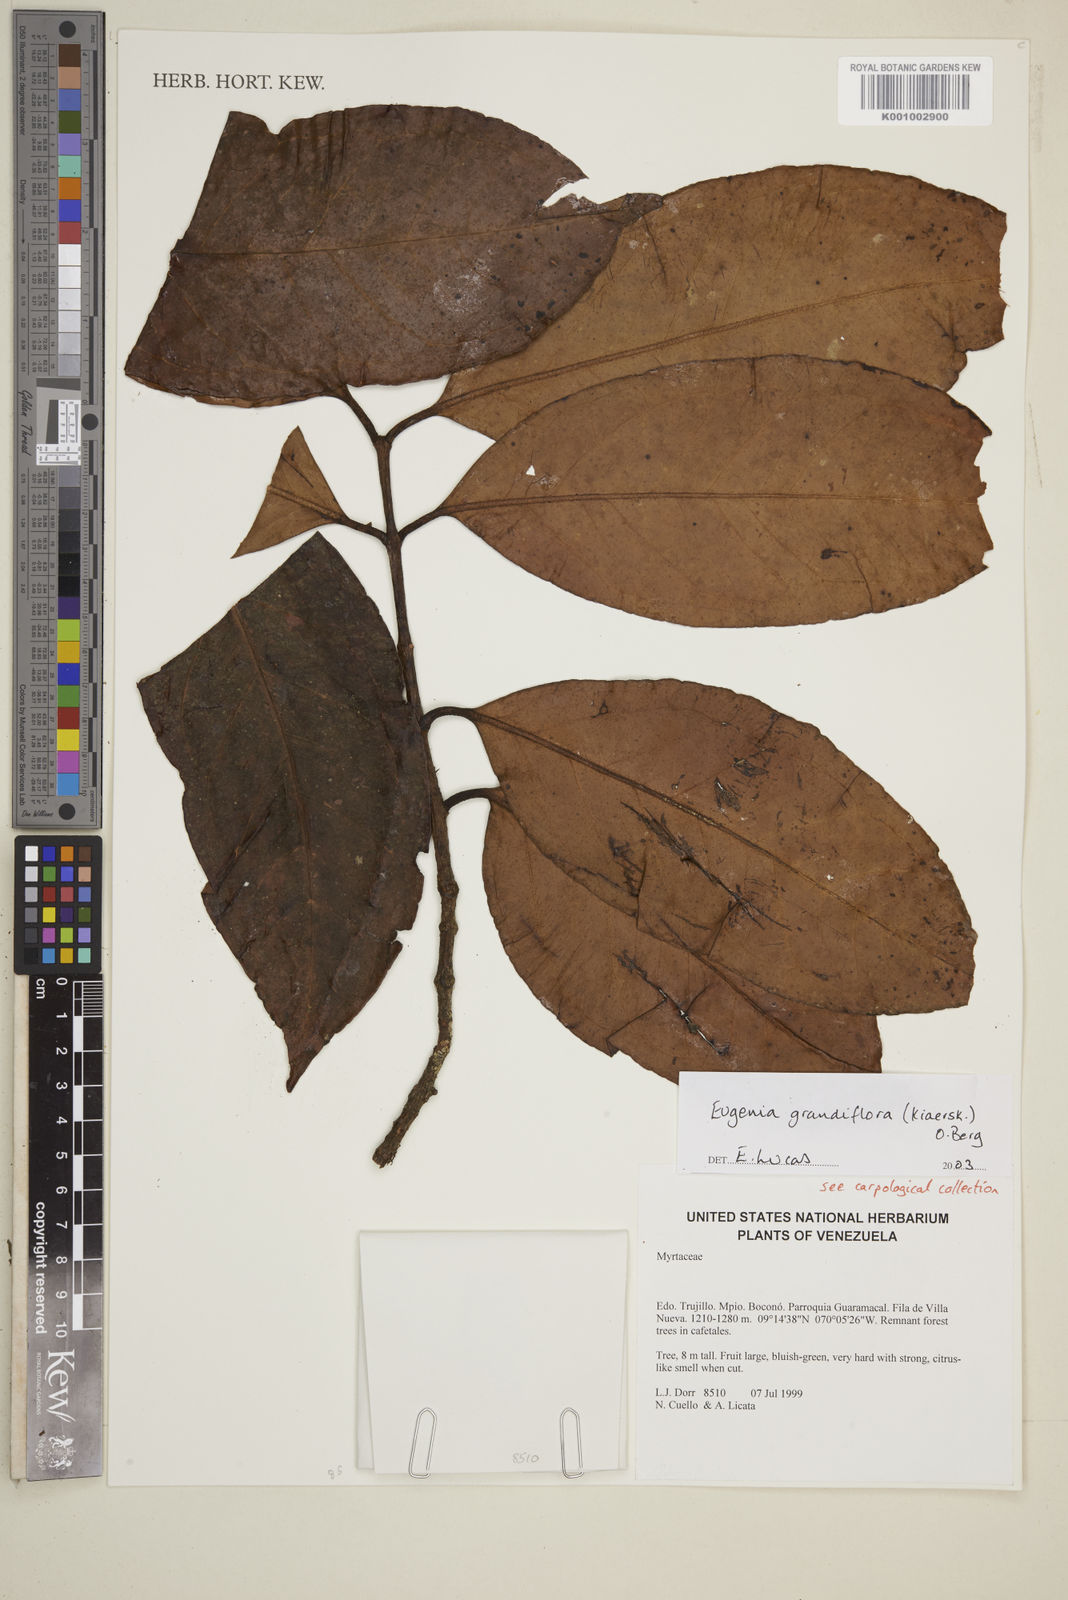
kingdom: Plantae
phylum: Tracheophyta
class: Magnoliopsida
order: Myrtales
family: Myrtaceae
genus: Eugenia
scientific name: Eugenia grandiflora
